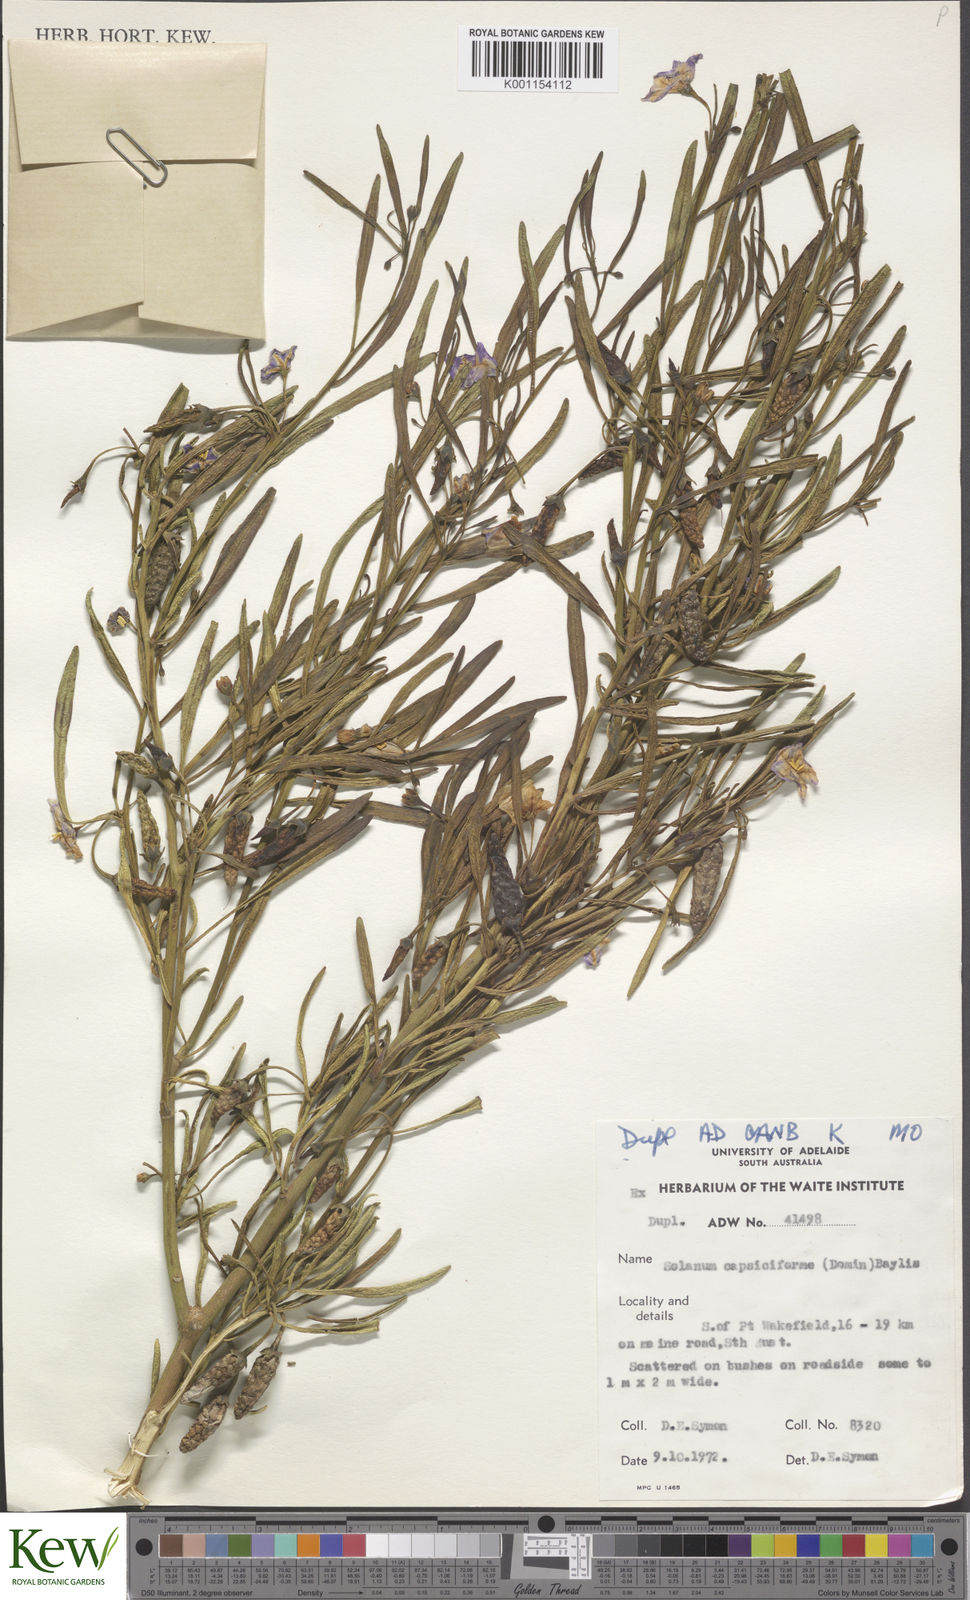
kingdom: Plantae
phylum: Tracheophyta
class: Magnoliopsida
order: Solanales
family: Solanaceae
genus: Solanum
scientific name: Solanum
